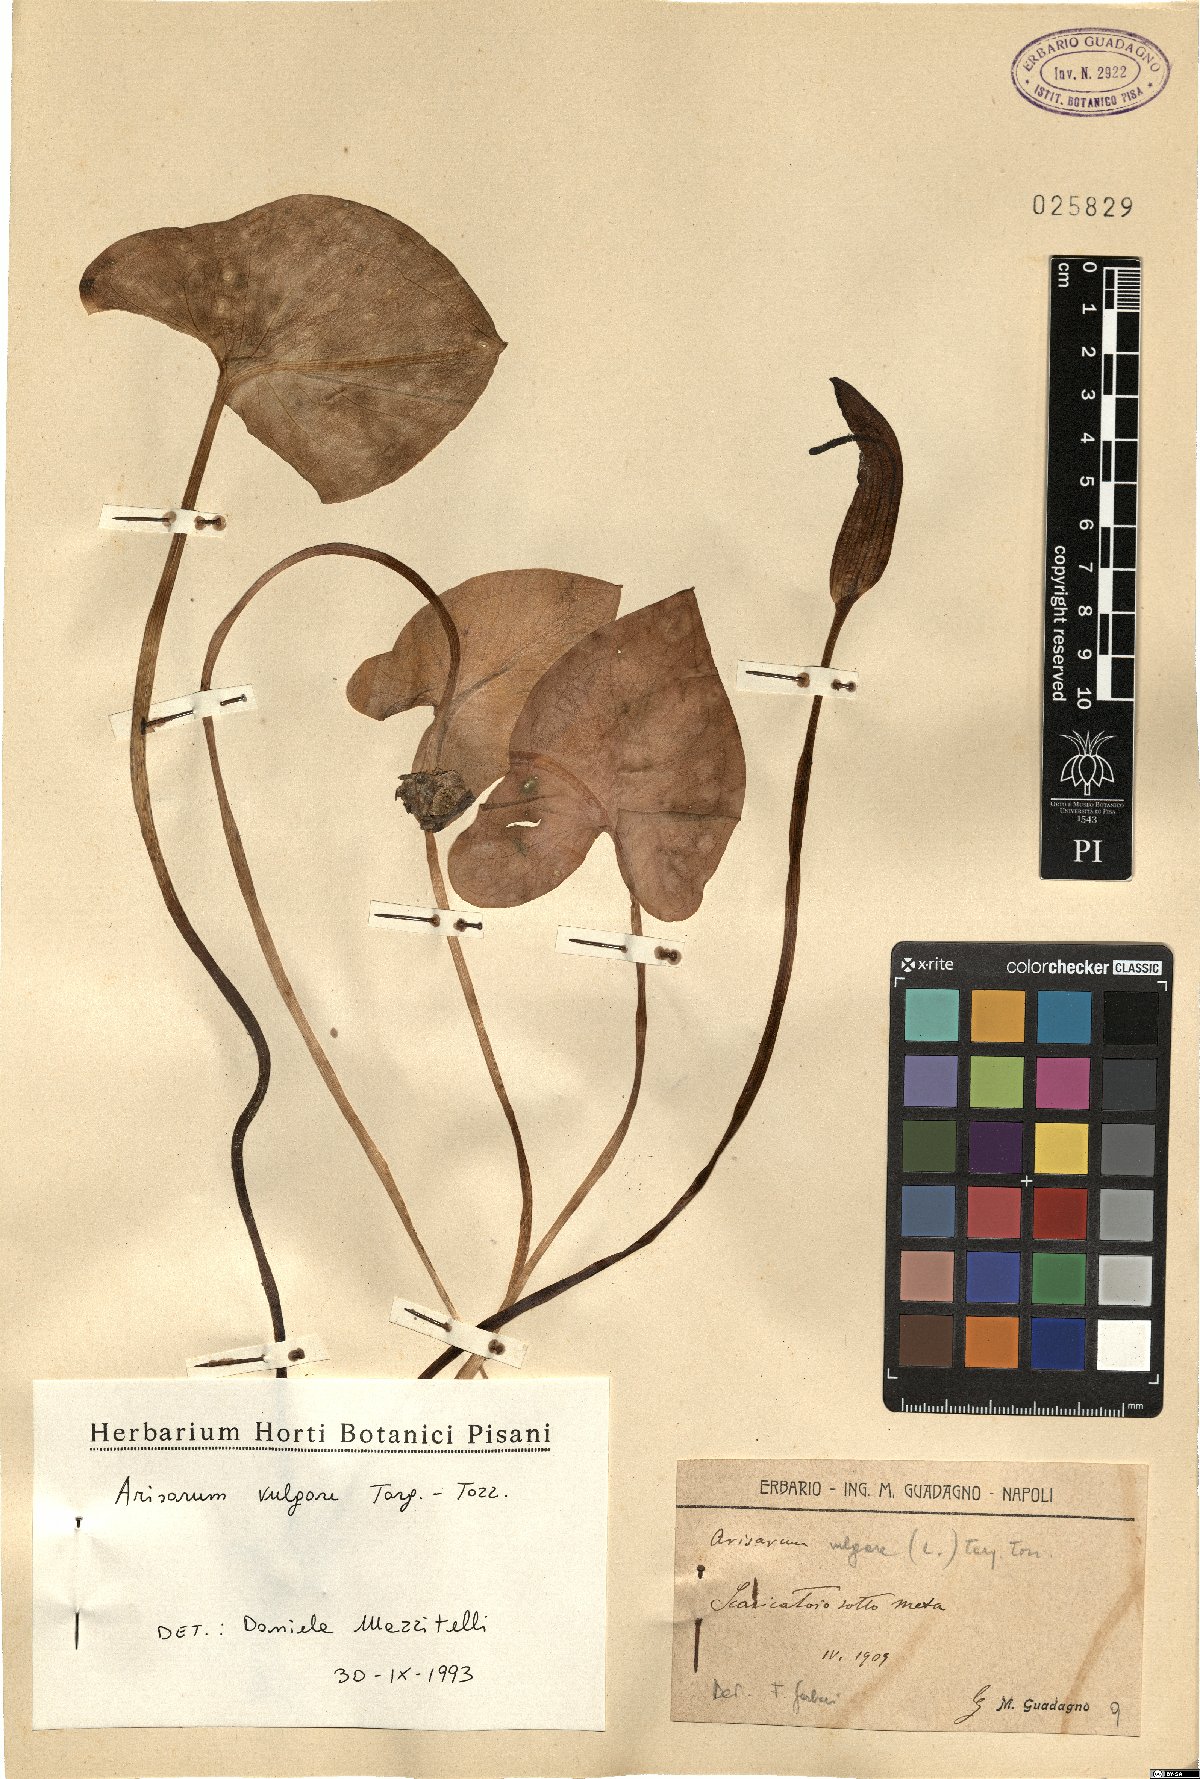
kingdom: Plantae
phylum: Tracheophyta
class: Liliopsida
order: Alismatales
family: Araceae
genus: Arisarum
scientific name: Arisarum vulgare
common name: Common arisarum
